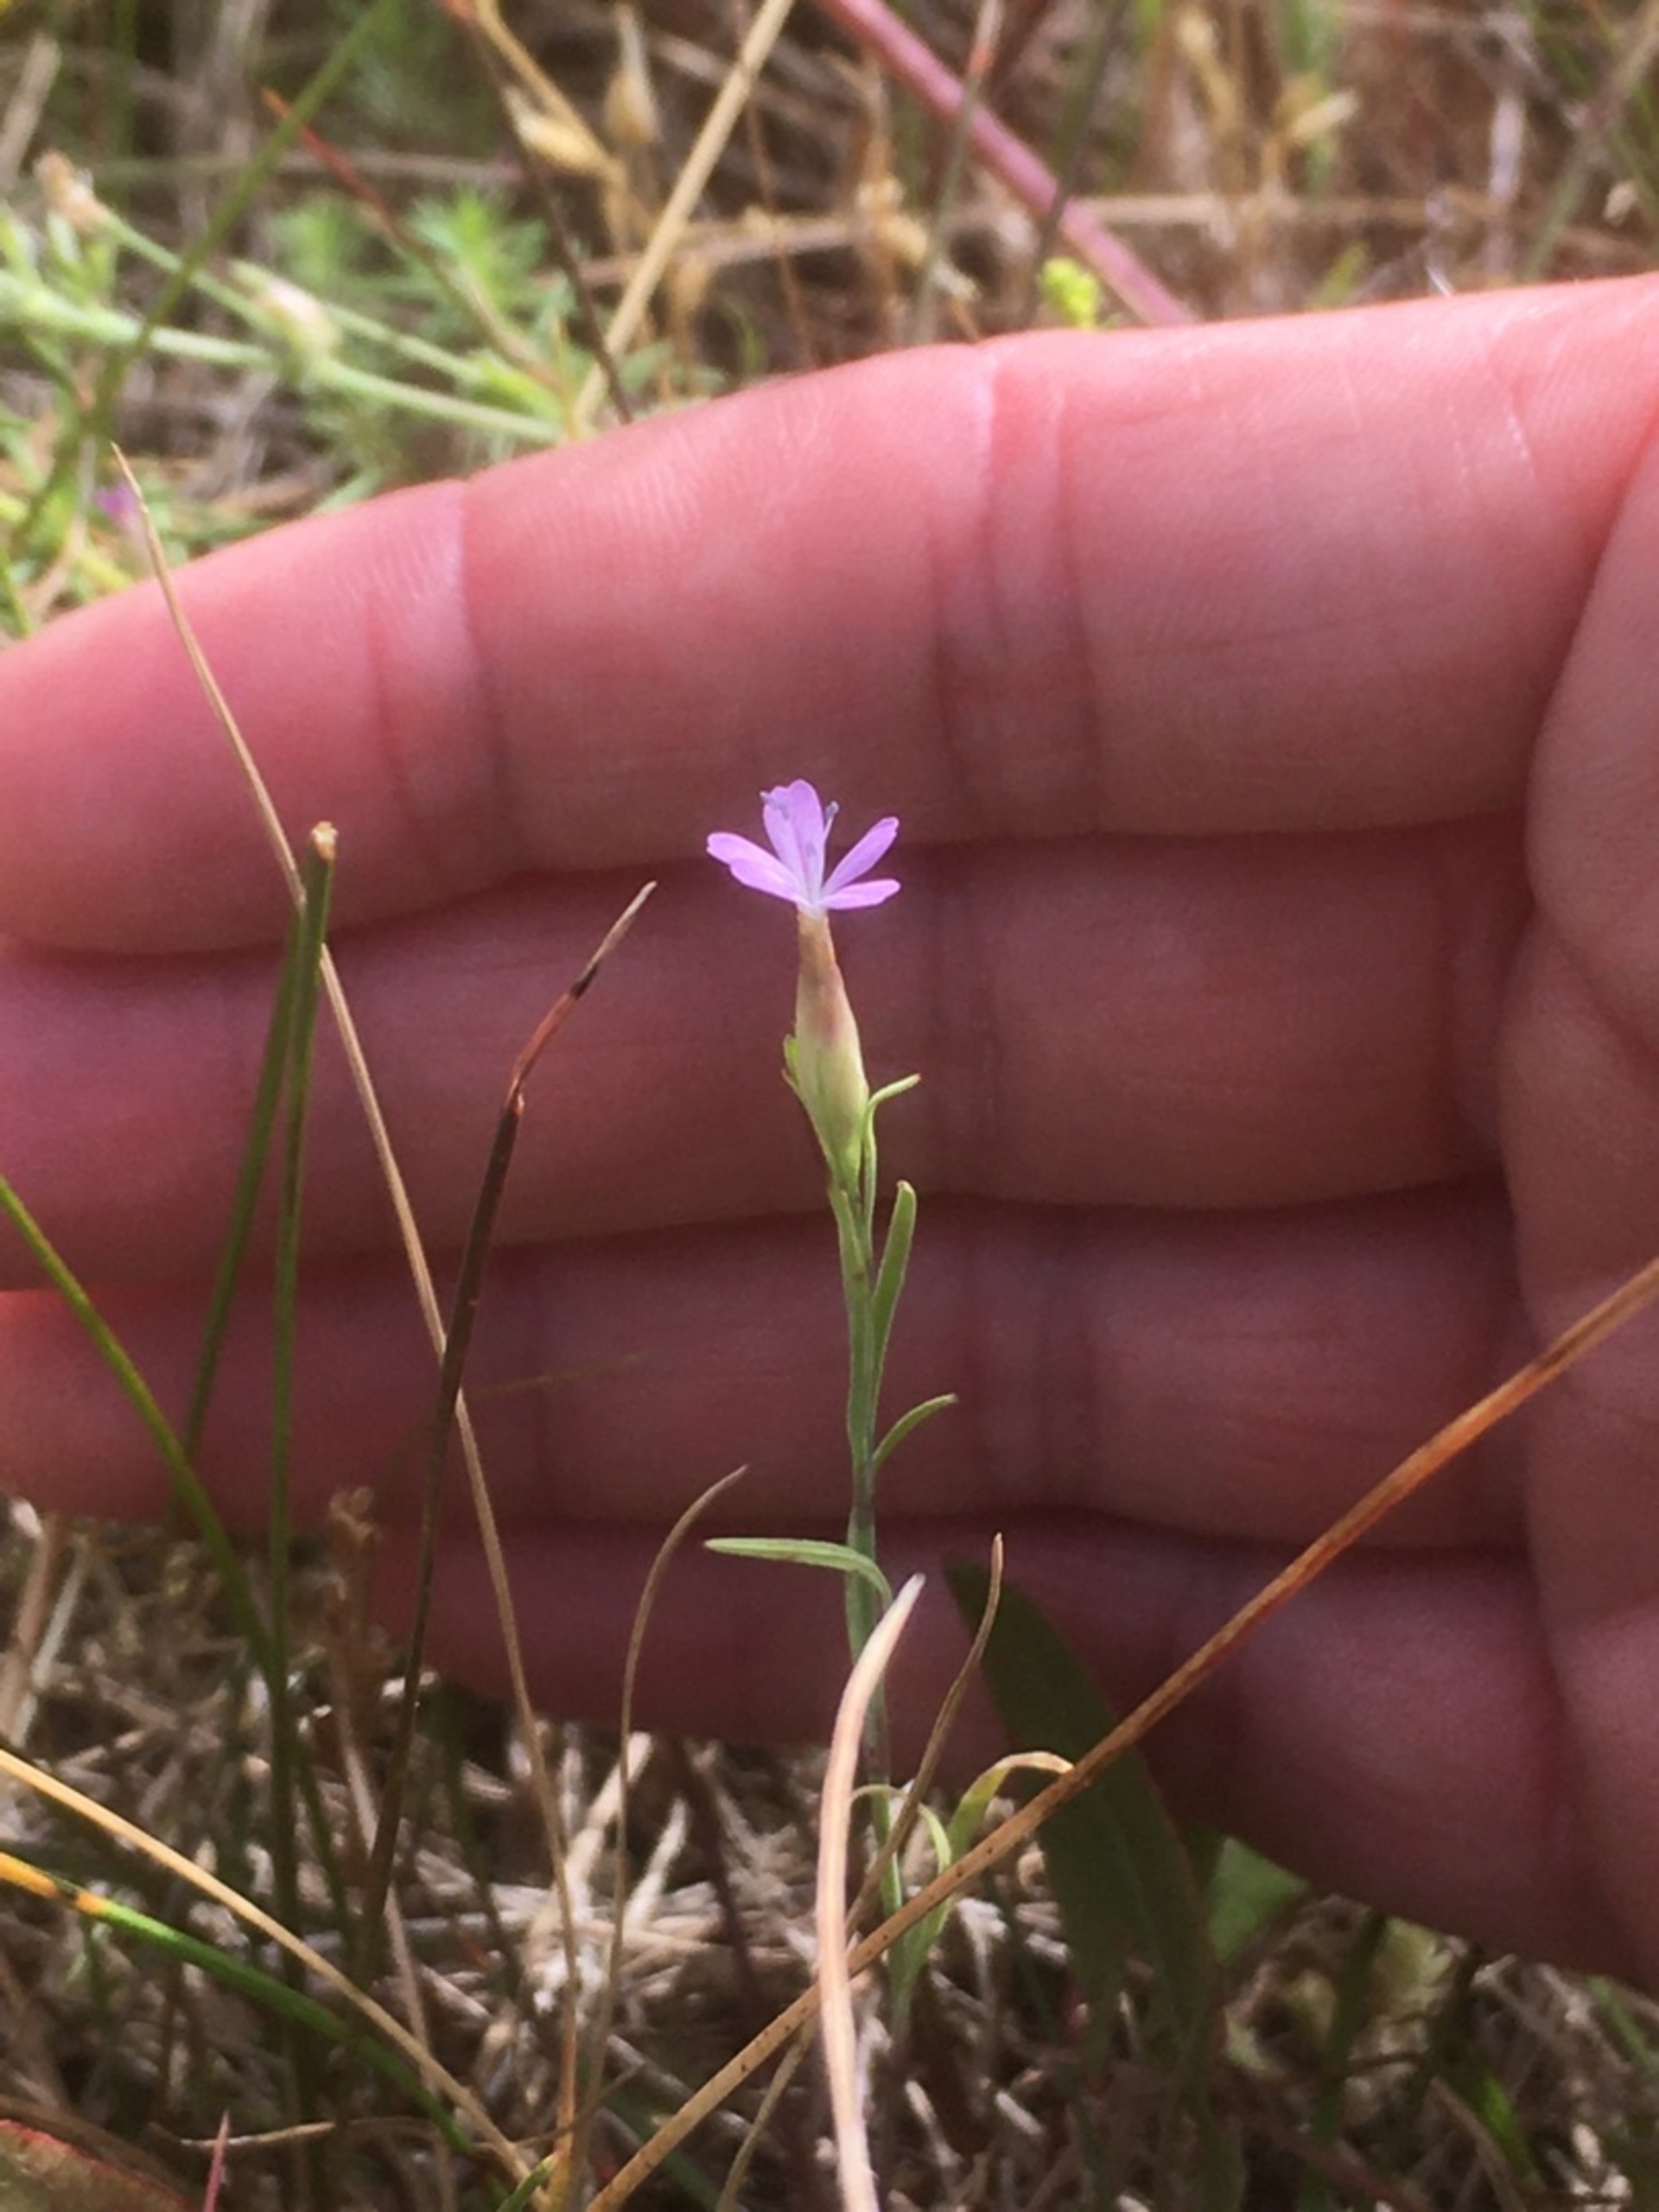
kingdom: Plantae
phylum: Tracheophyta
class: Magnoliopsida
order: Caryophyllales
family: Caryophyllaceae
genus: Petrorhagia
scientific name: Petrorhagia prolifera
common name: Knopnellike
